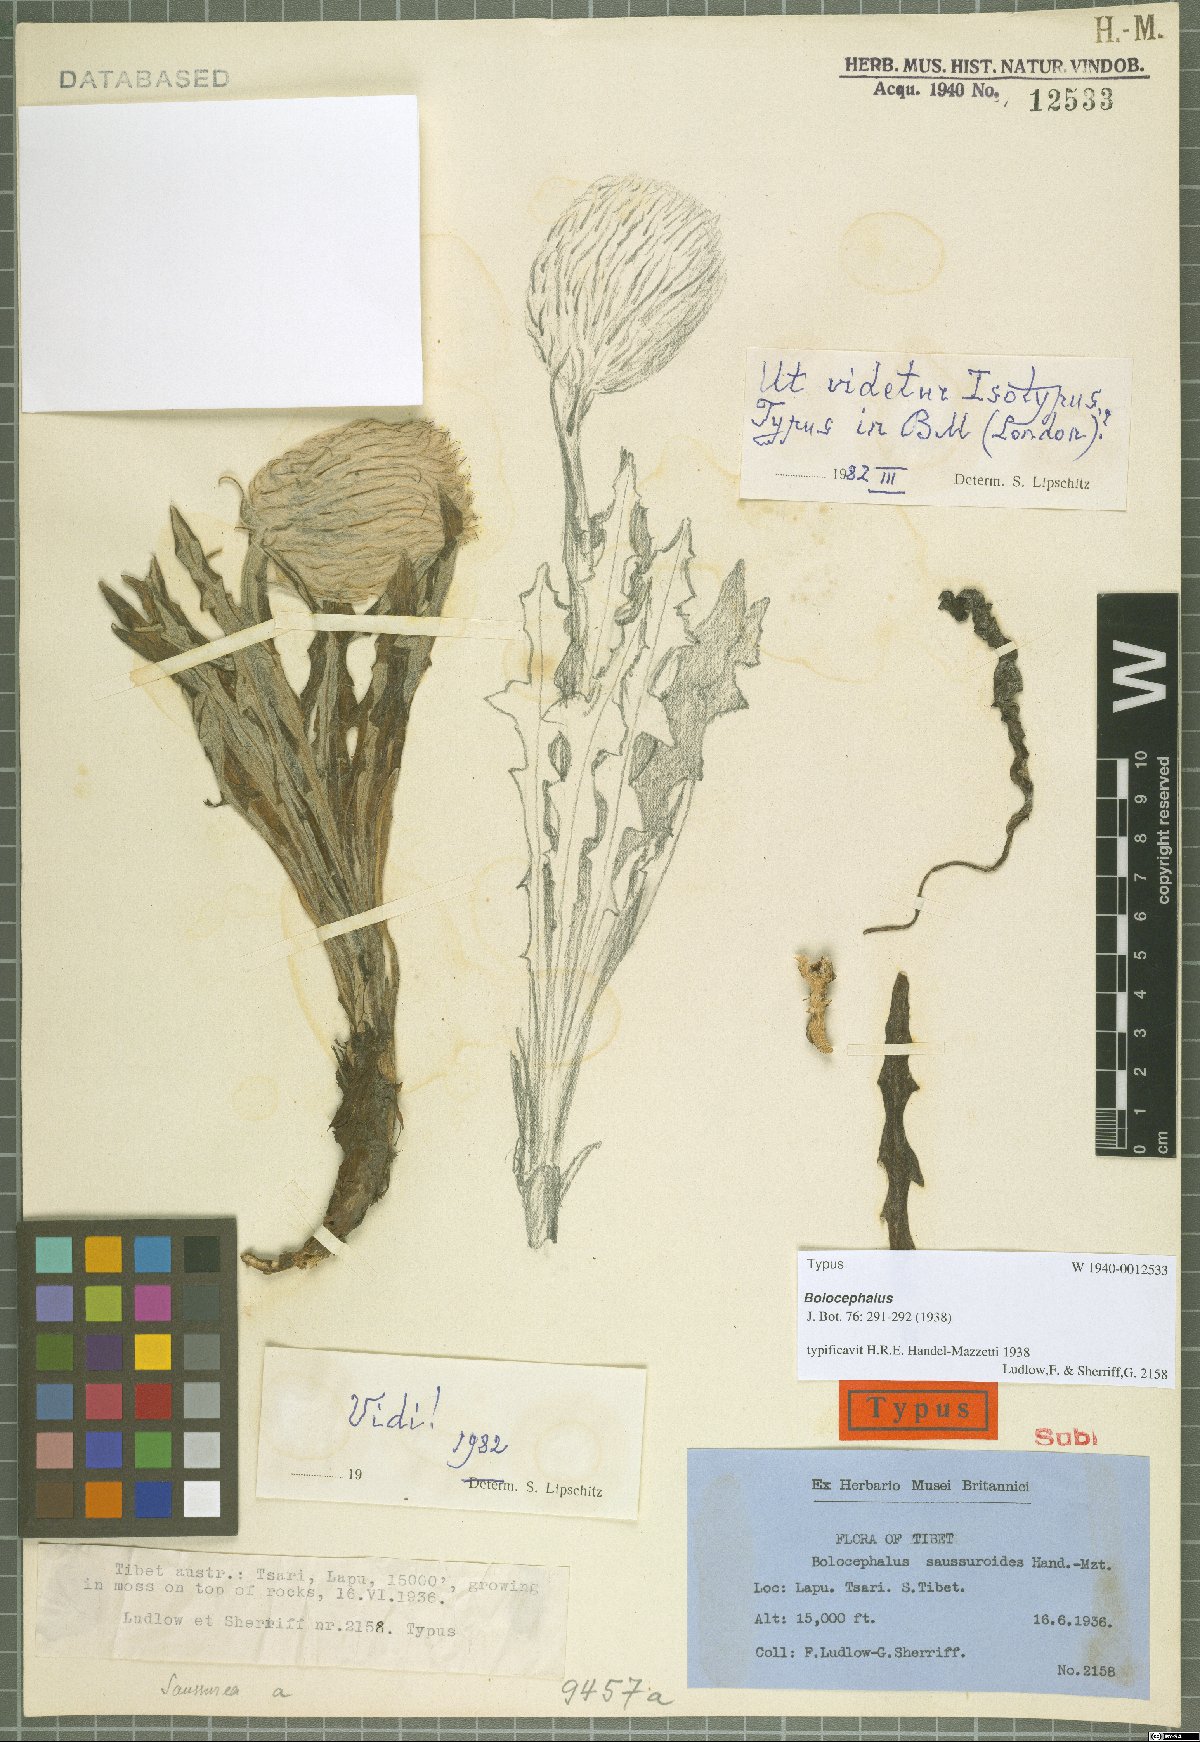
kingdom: Plantae
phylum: Tracheophyta
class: Magnoliopsida
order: Asterales
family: Asteraceae
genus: Dolomiaea
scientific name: Dolomiaea saussureoides
